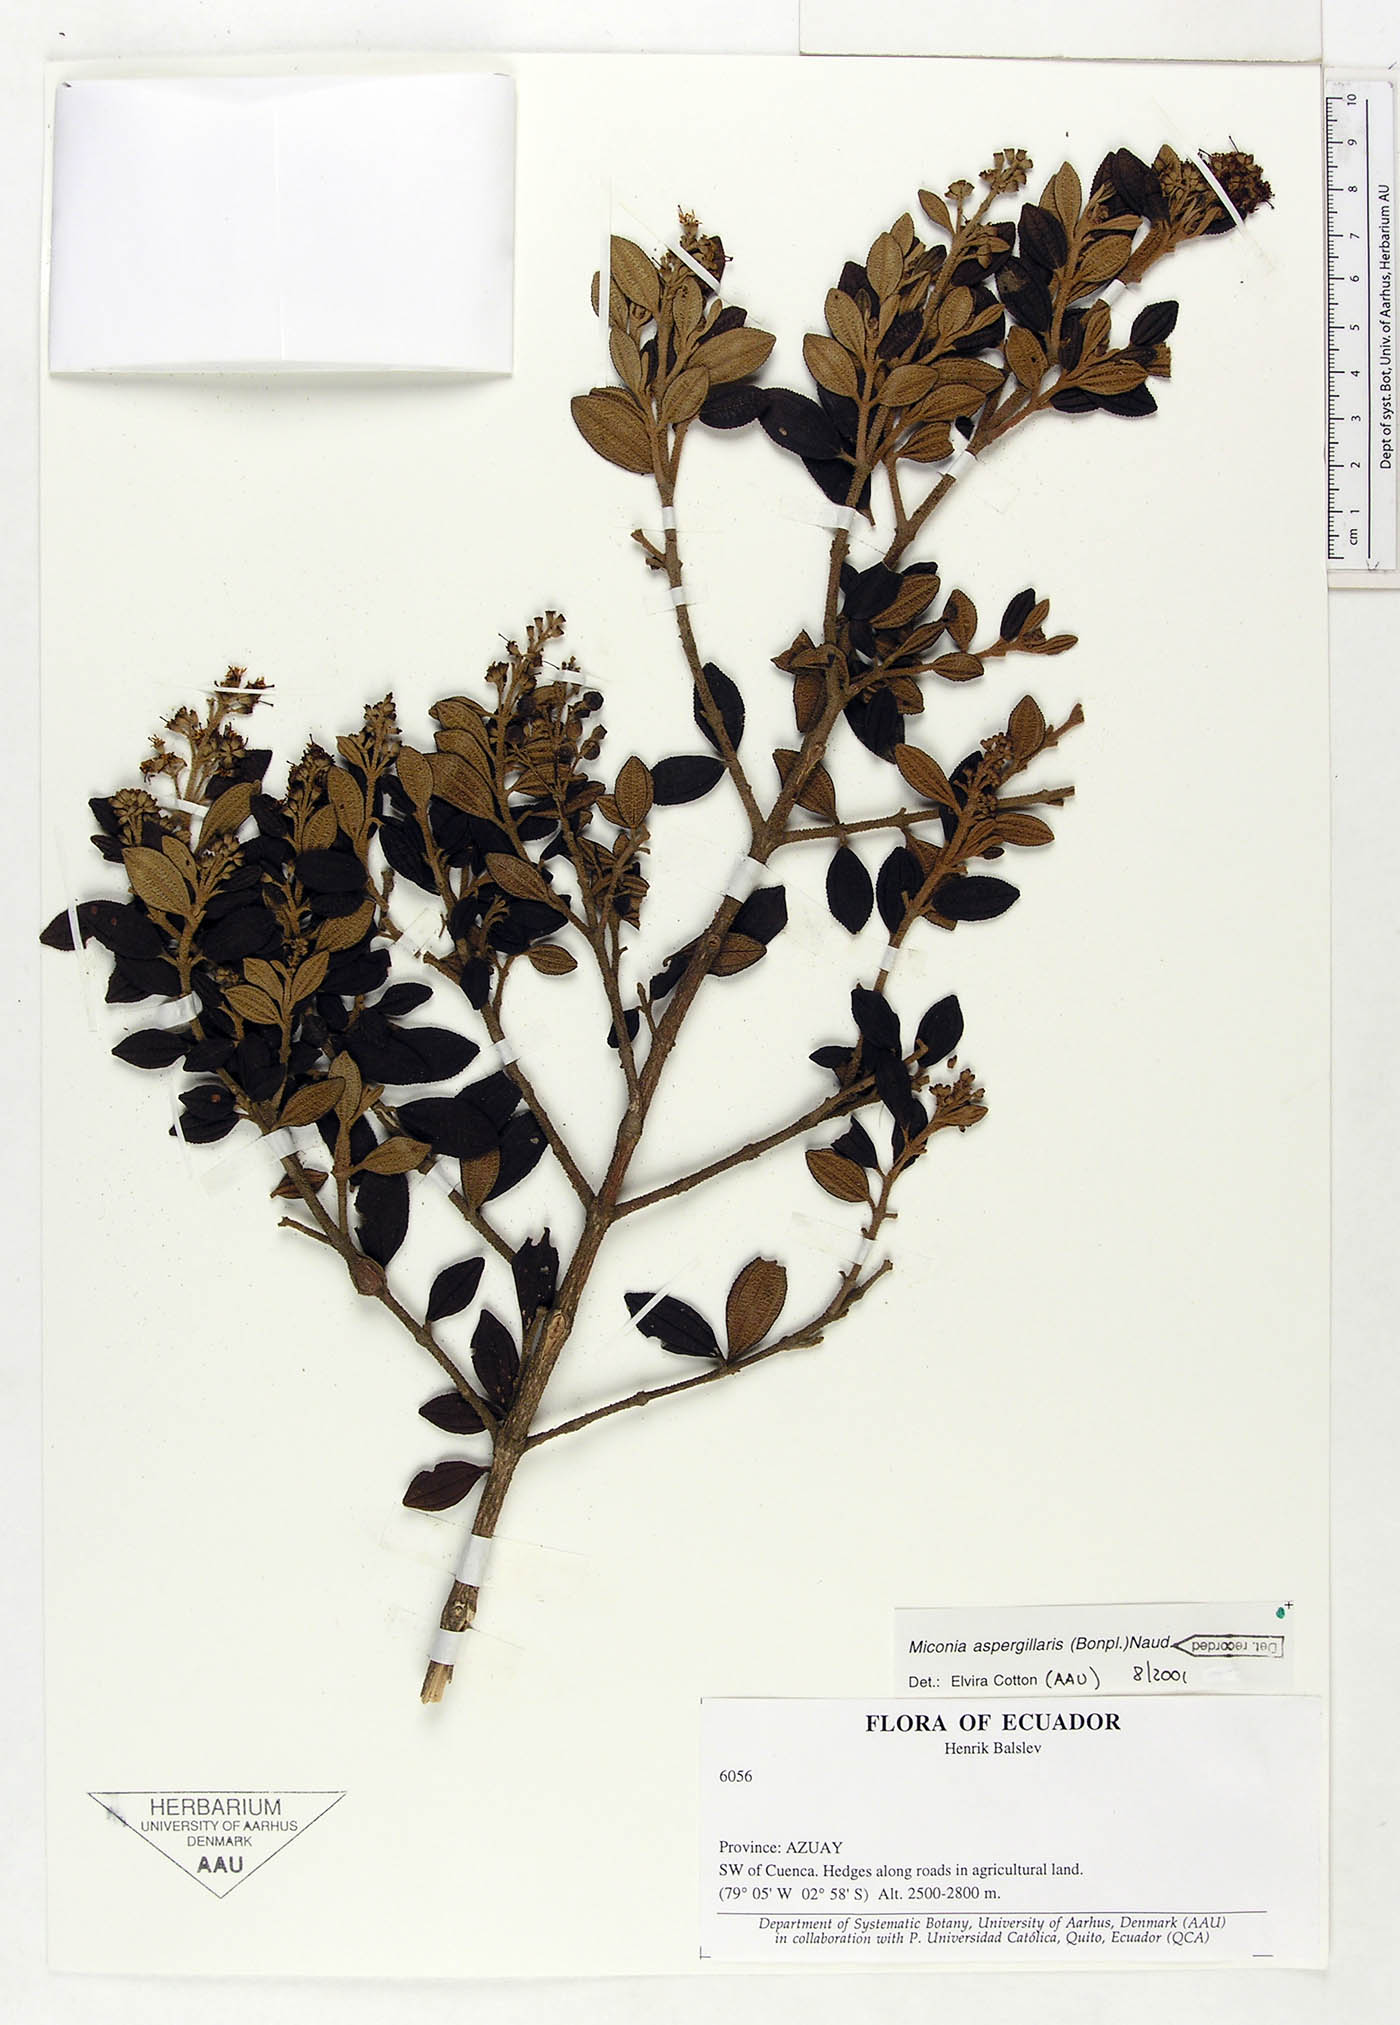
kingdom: Plantae
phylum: Tracheophyta
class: Magnoliopsida
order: Myrtales
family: Melastomataceae
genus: Miconia
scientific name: Miconia aspergillaris
